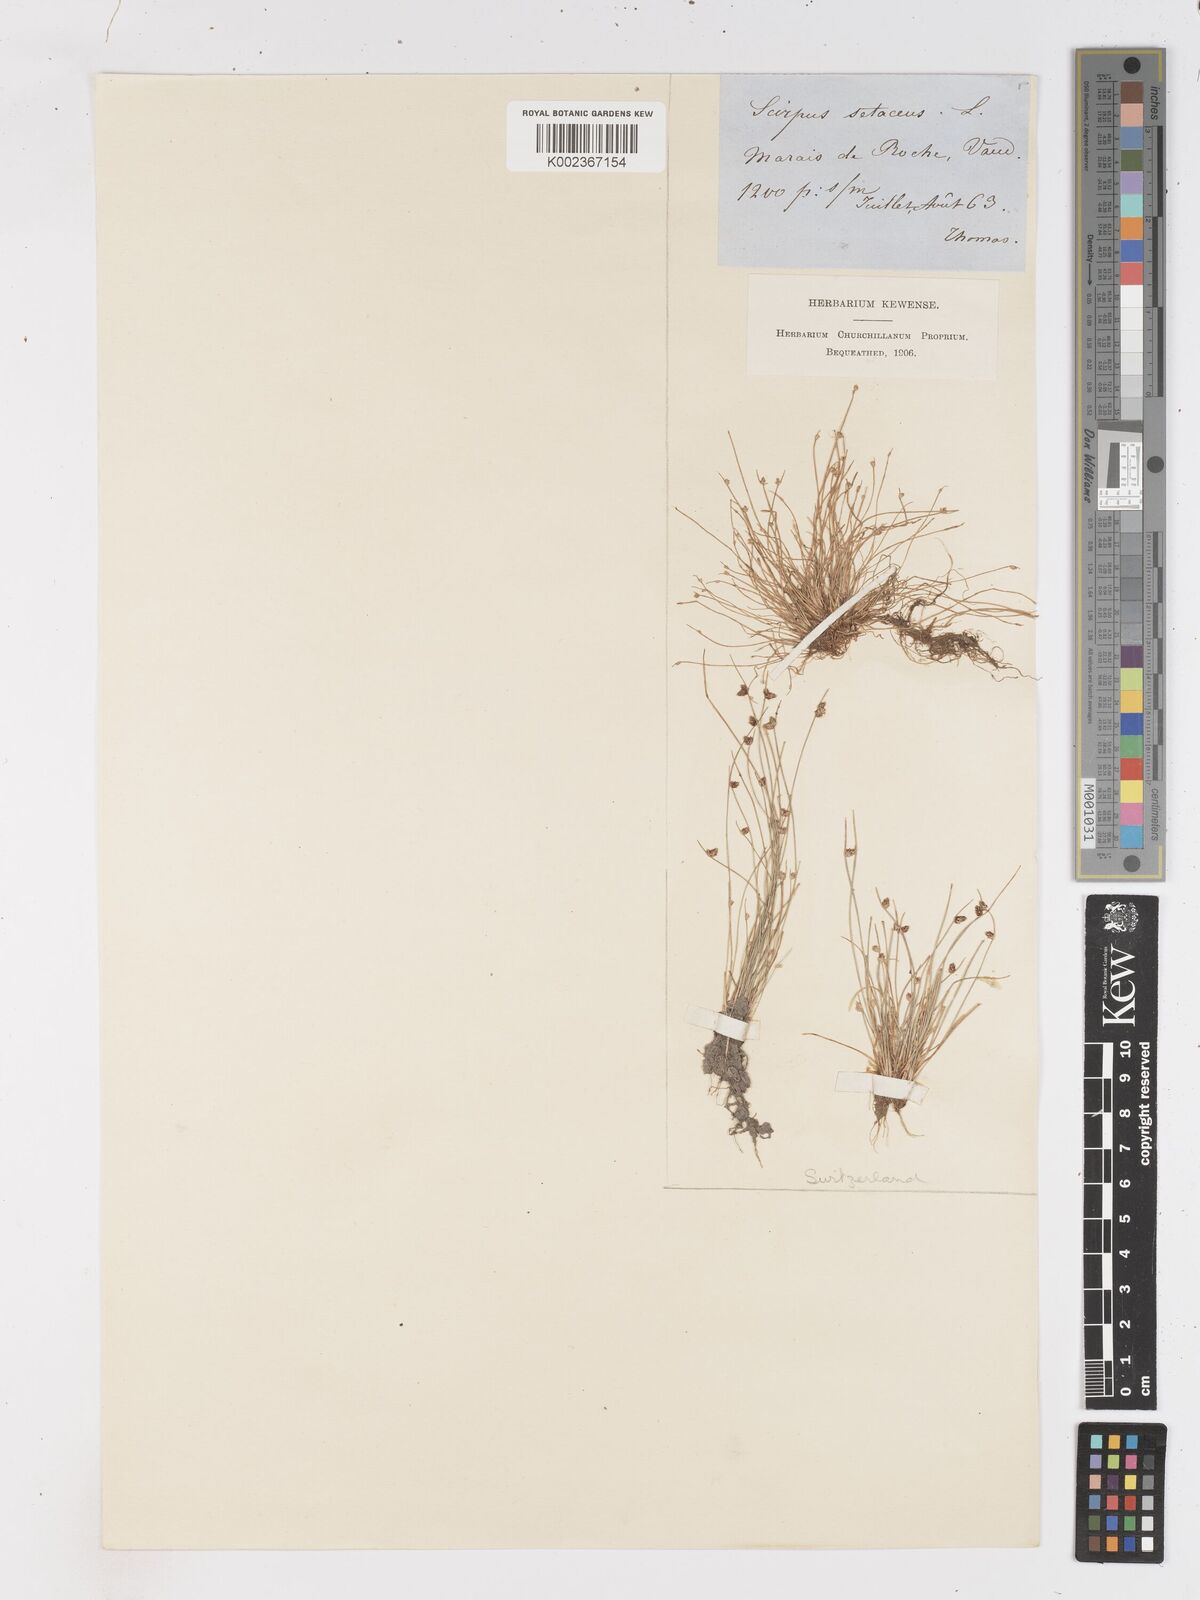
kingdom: Plantae
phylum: Tracheophyta
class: Liliopsida
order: Poales
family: Cyperaceae
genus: Isolepis
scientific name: Isolepis setacea
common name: Bristle club-rush
